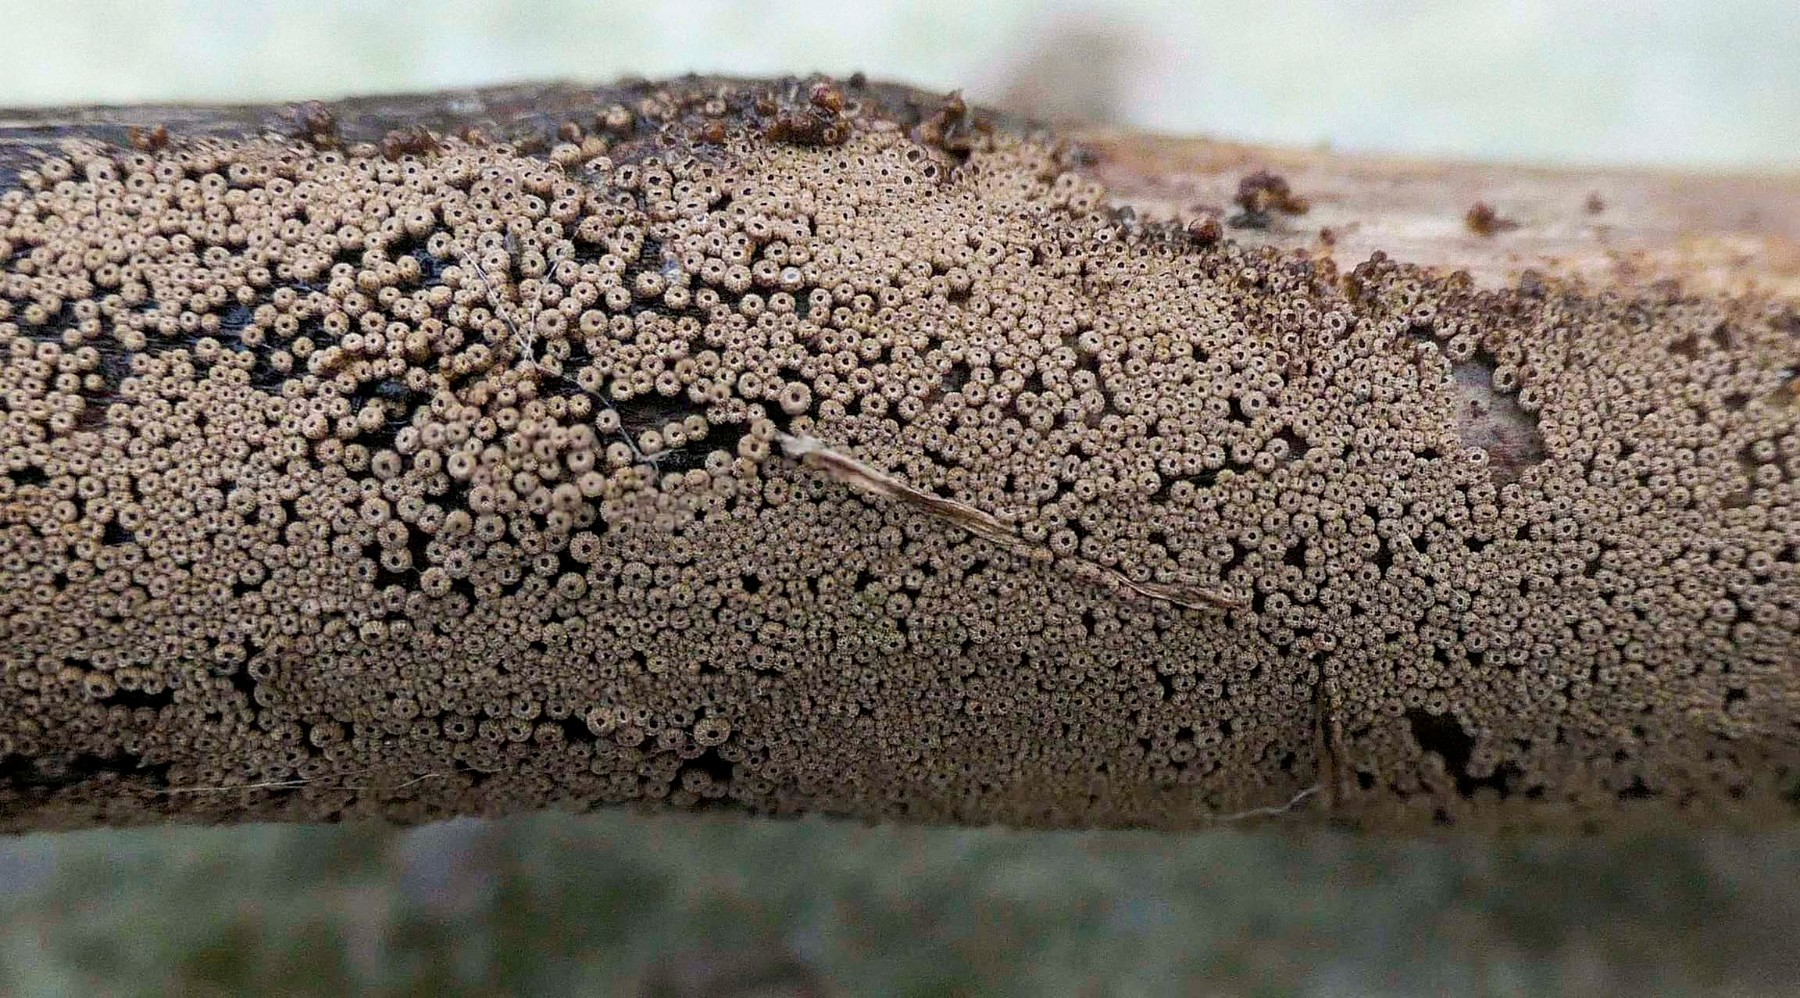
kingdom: Fungi
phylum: Basidiomycota
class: Agaricomycetes
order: Agaricales
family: Niaceae
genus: Merismodes
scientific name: Merismodes anomala
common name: almindelig læderskål
